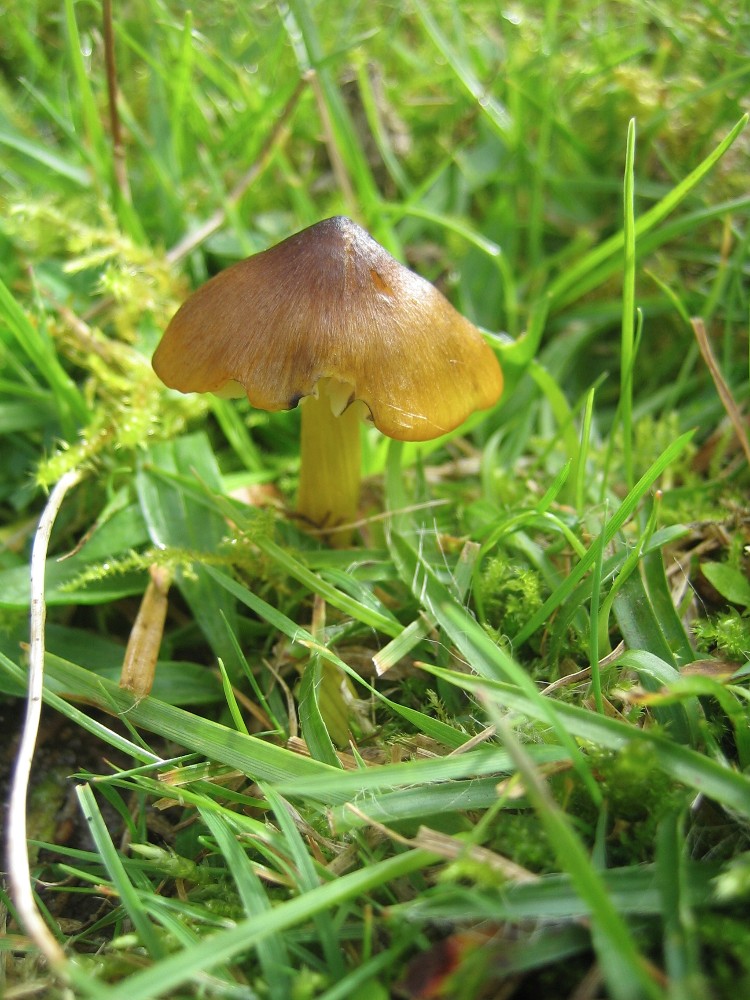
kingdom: Fungi
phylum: Basidiomycota
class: Agaricomycetes
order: Agaricales
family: Hygrophoraceae
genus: Hygrocybe
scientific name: Hygrocybe conica
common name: kegle-vokshat
